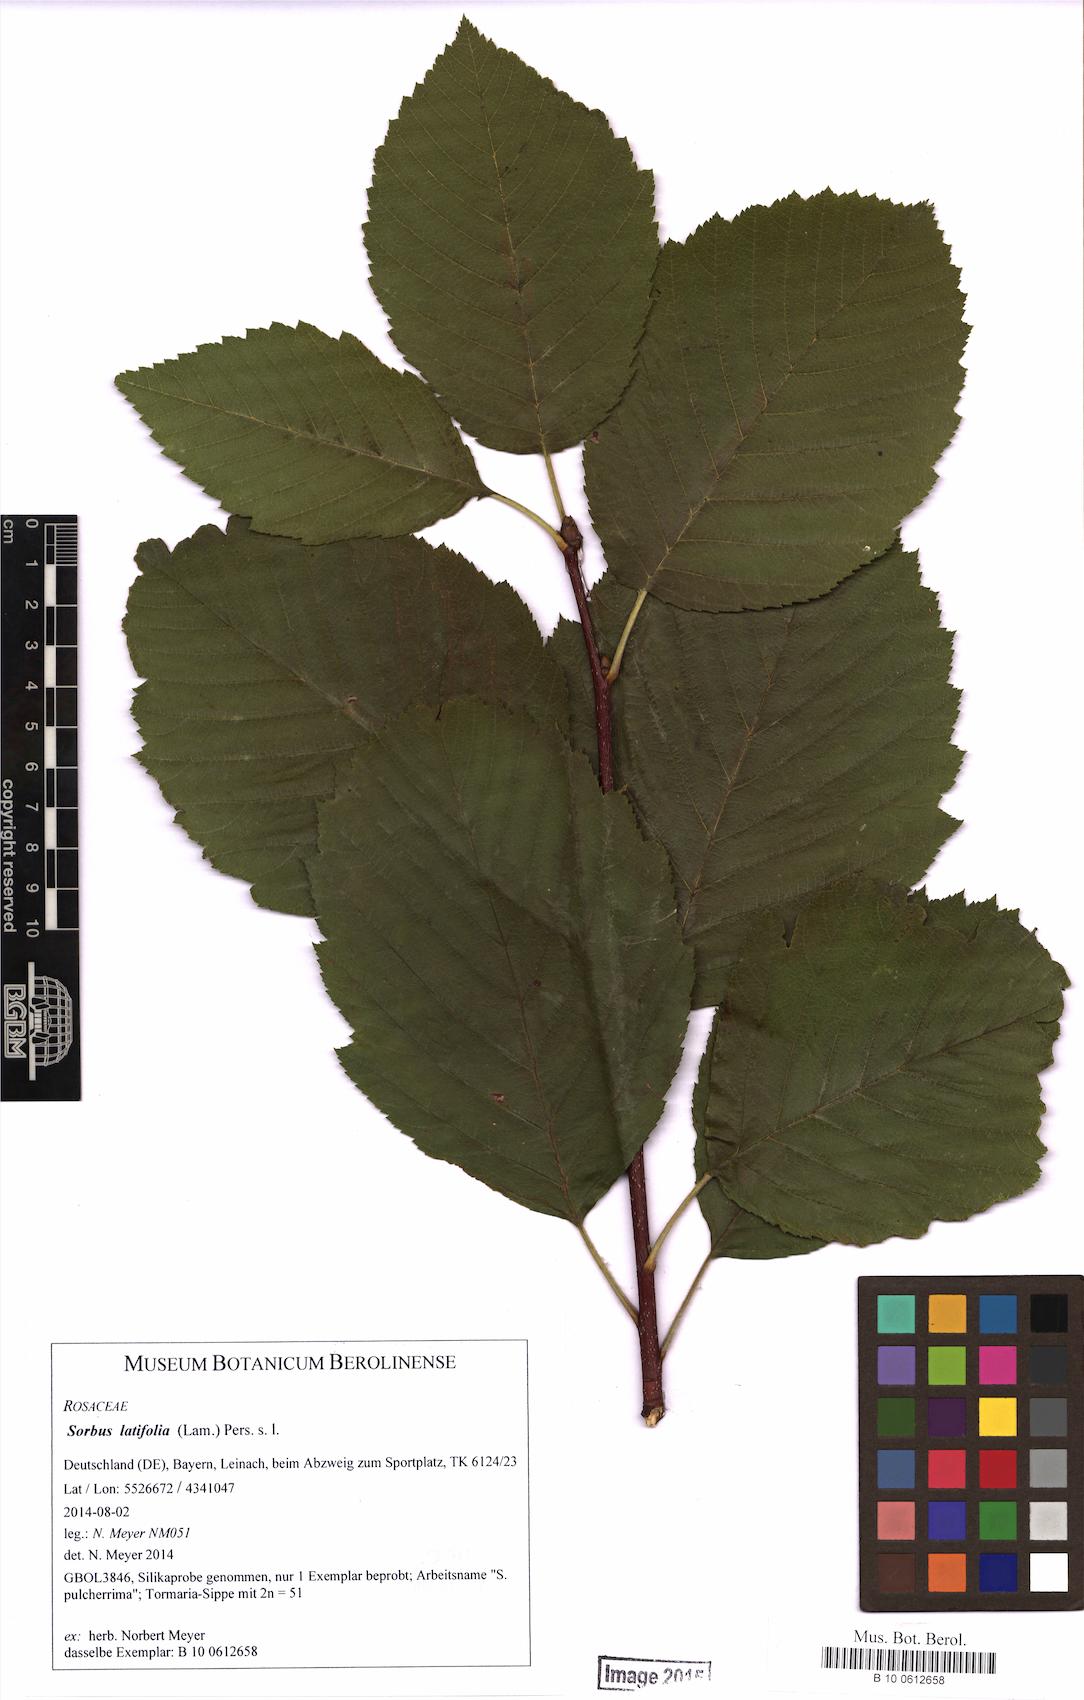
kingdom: Plantae
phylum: Tracheophyta
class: Magnoliopsida
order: Rosales
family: Rosaceae
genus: Karpatiosorbus
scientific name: Karpatiosorbus latifolia
